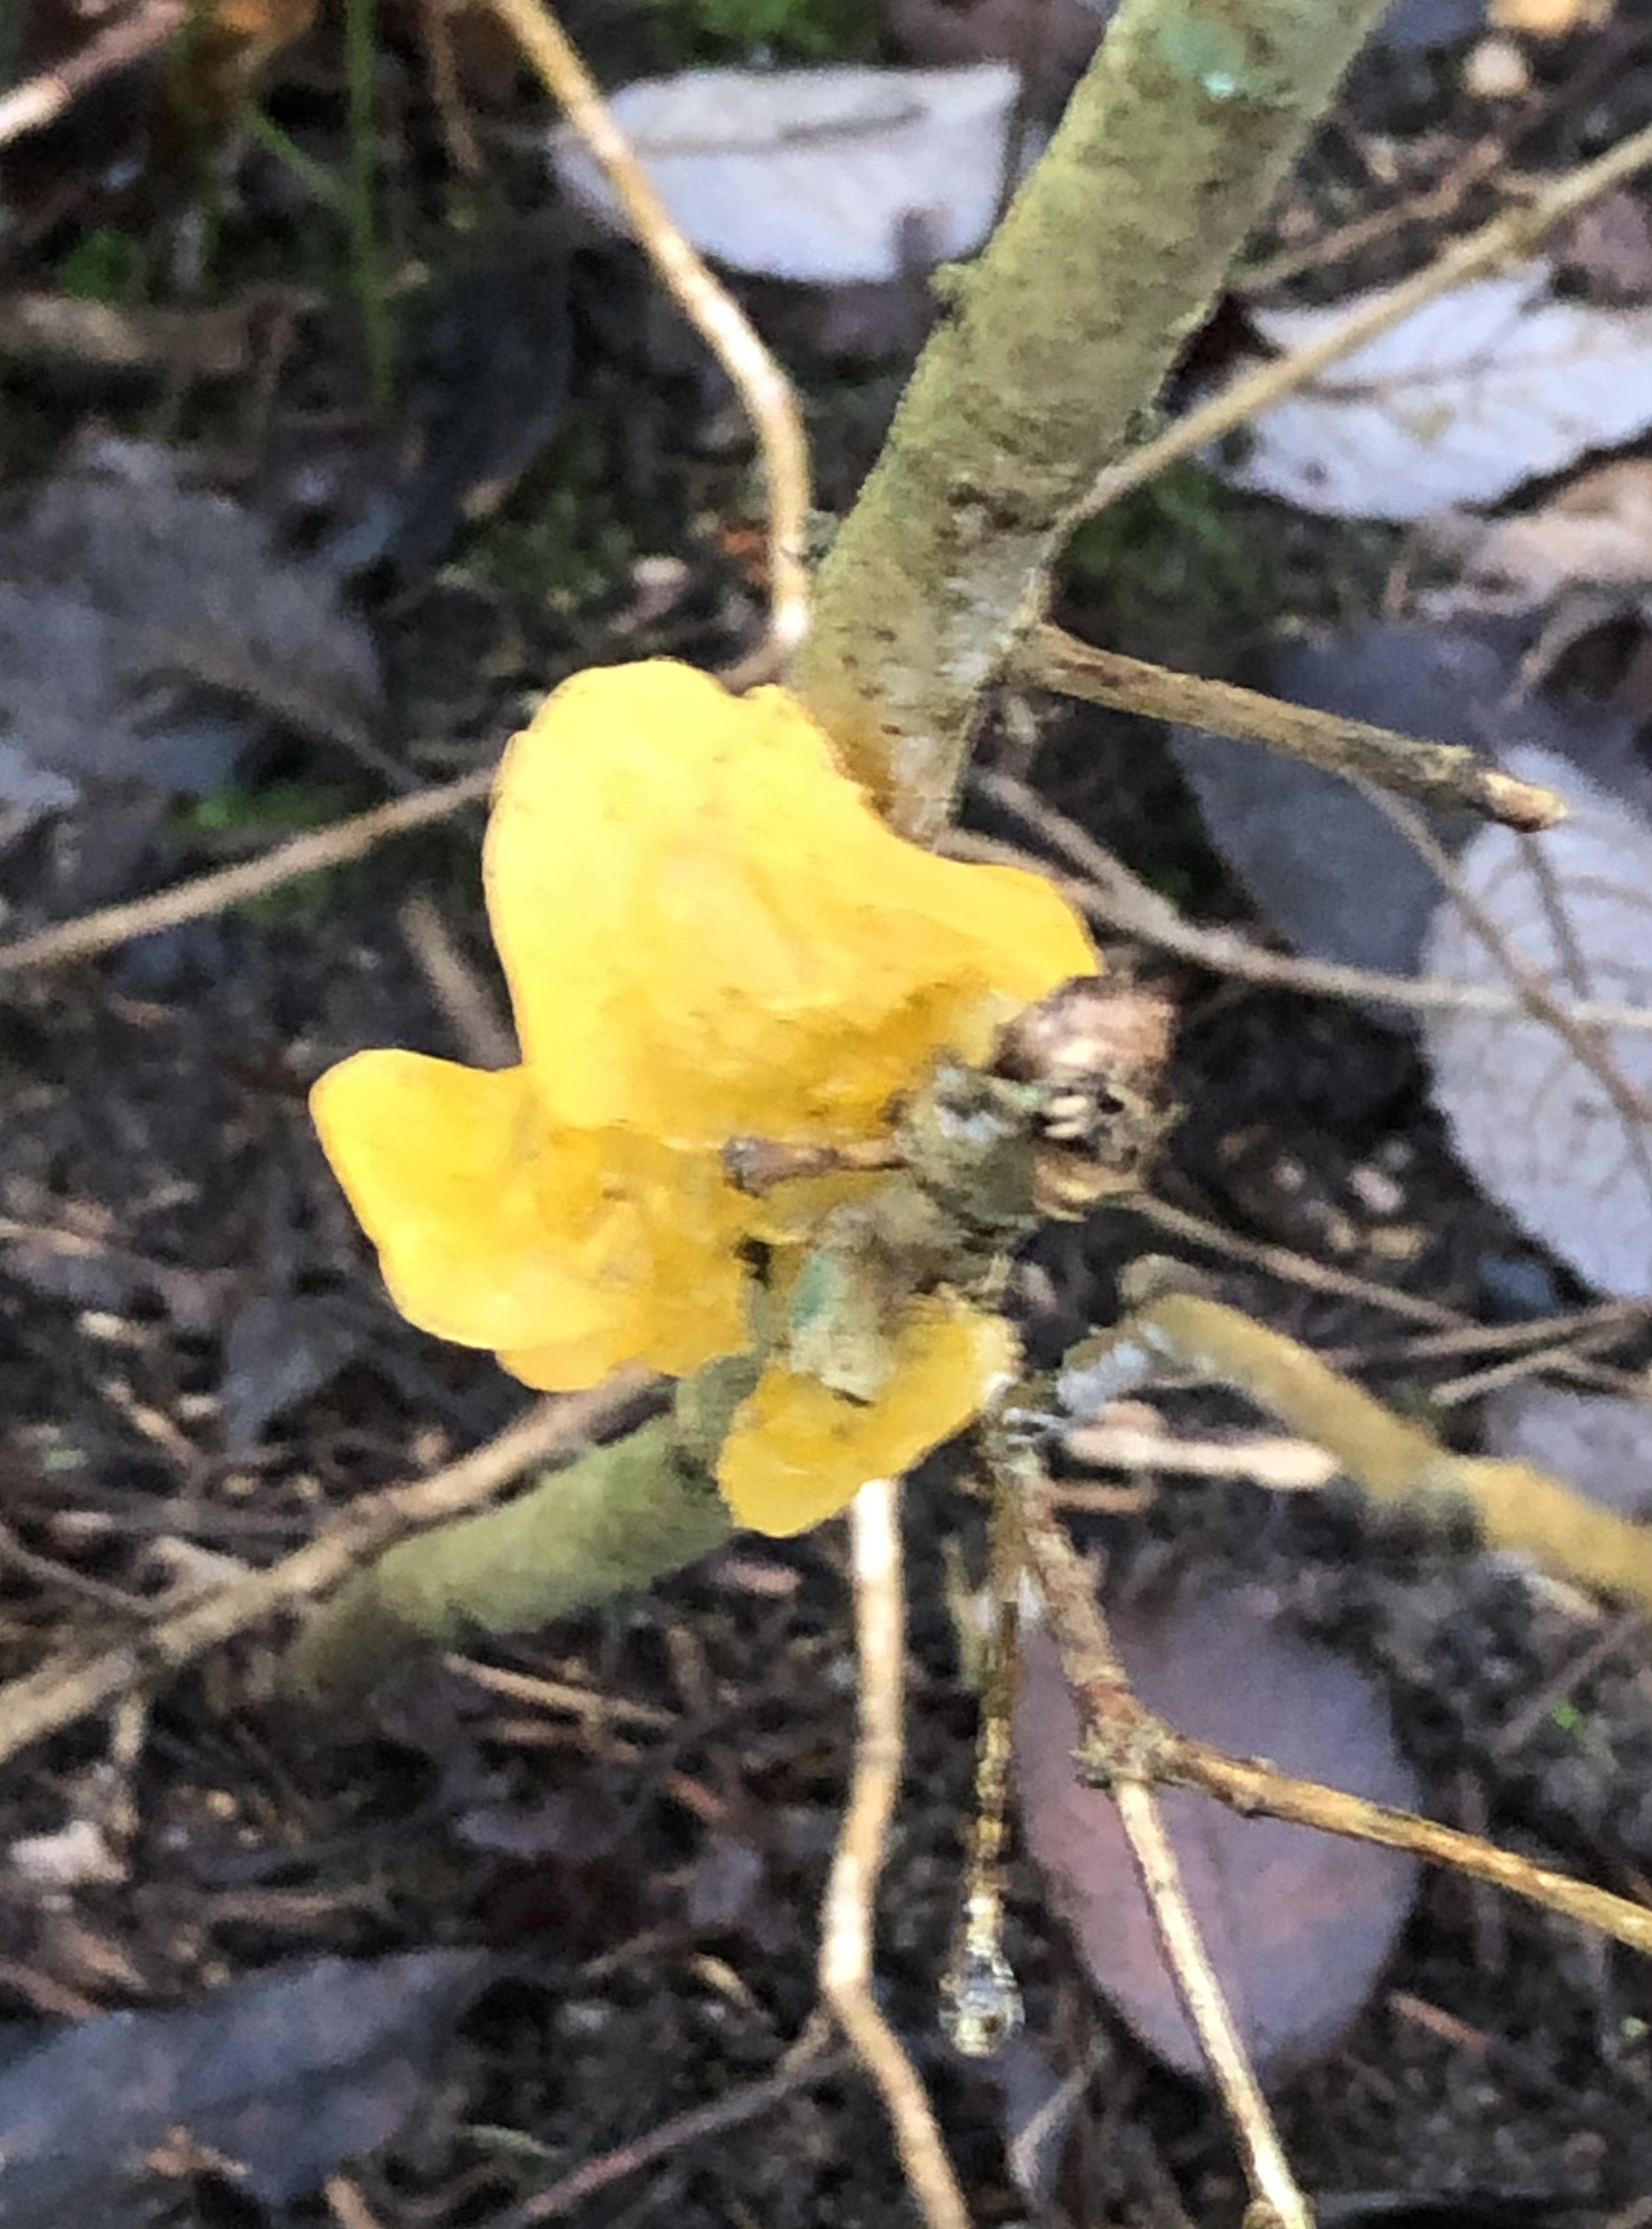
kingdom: Fungi
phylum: Basidiomycota
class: Tremellomycetes
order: Tremellales
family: Tremellaceae
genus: Tremella
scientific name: Tremella mesenterica
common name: gul bævresvamp
